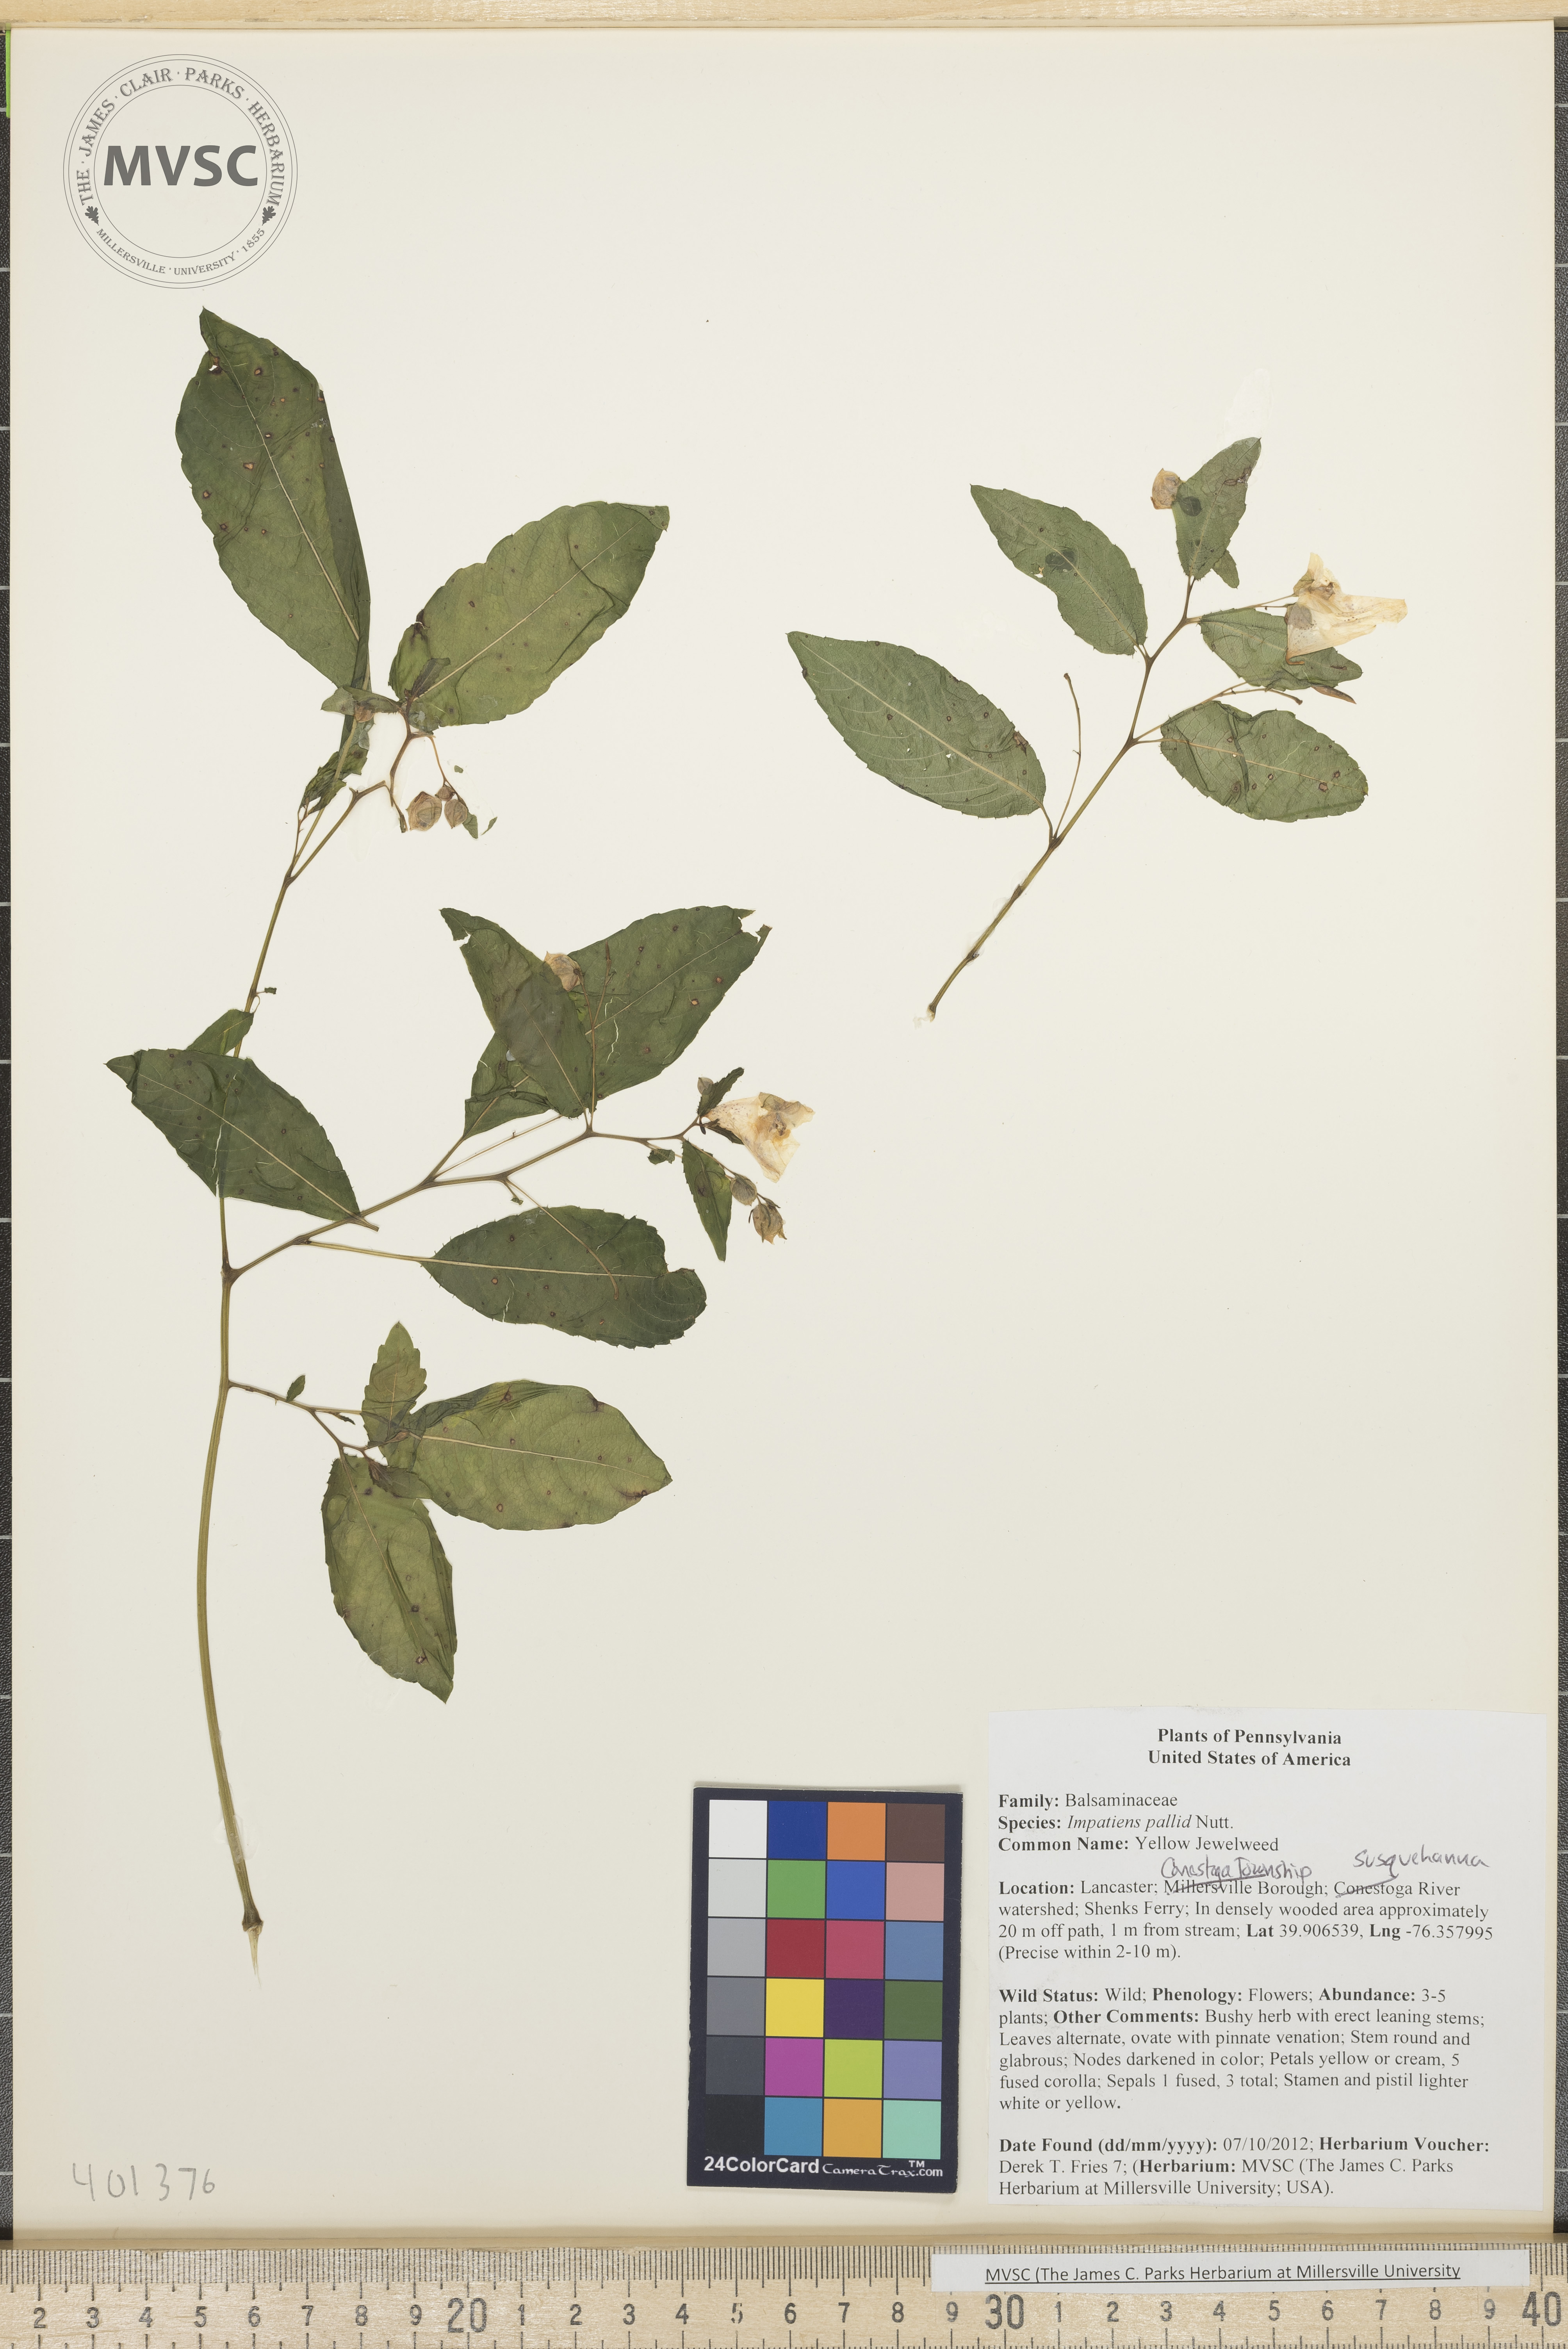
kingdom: Plantae
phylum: Tracheophyta
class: Magnoliopsida
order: Ericales
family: Balsaminaceae
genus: Impatiens
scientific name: Impatiens pallida
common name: Yellow Jewelweed
